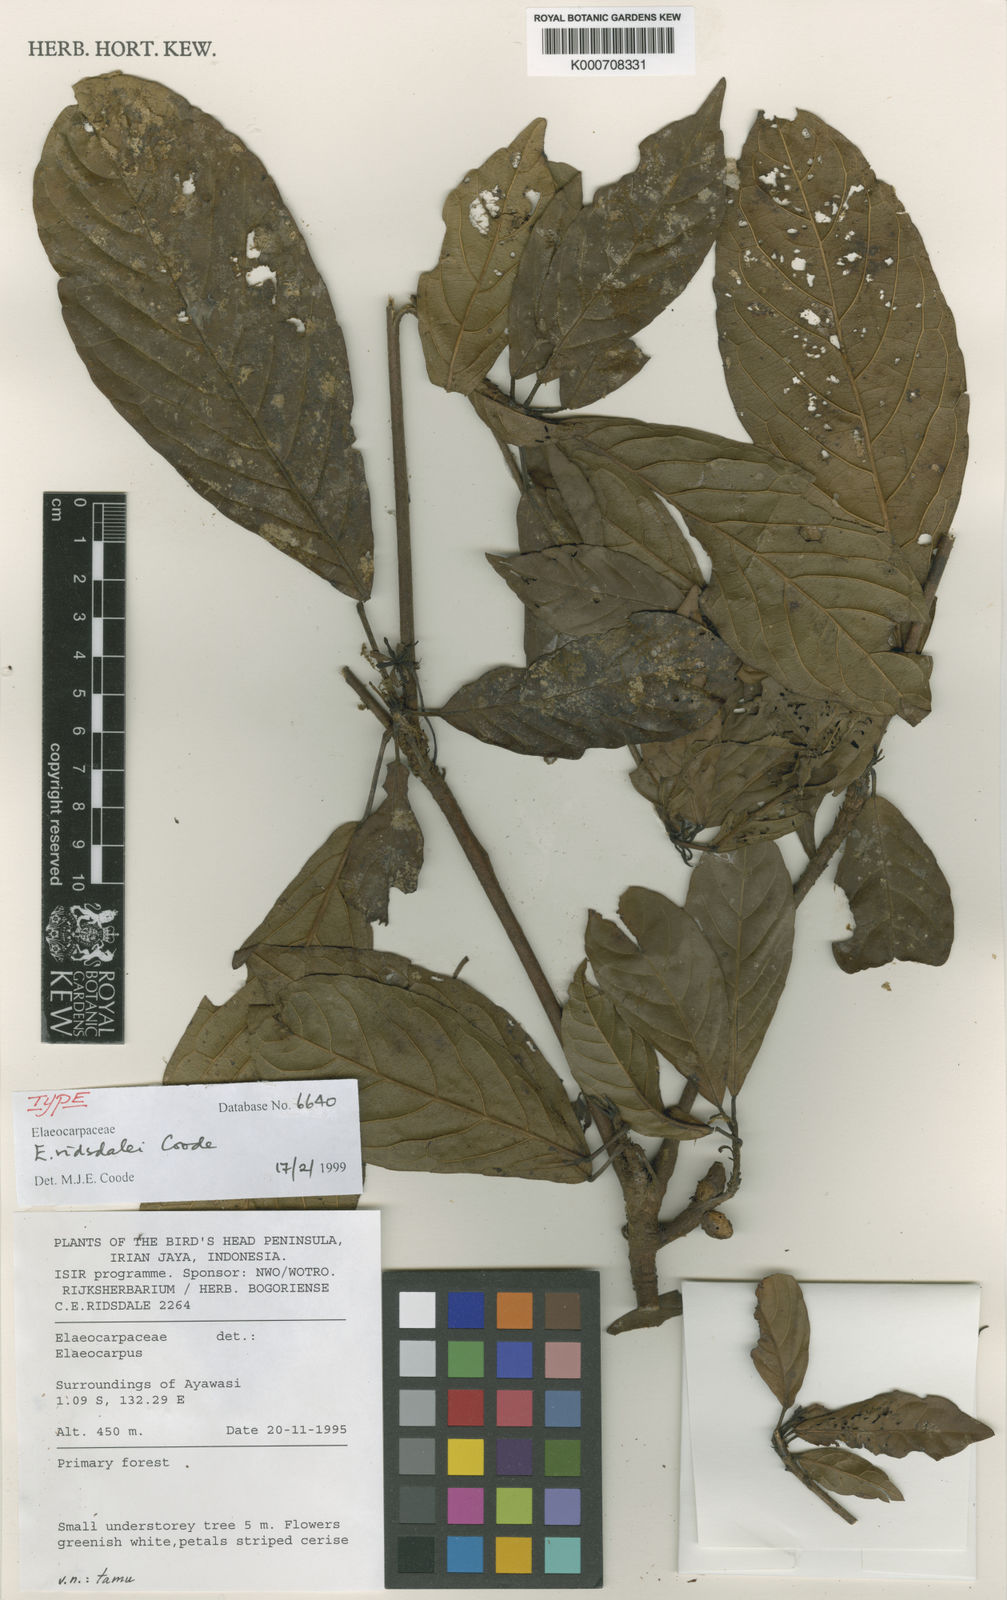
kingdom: Plantae
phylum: Tracheophyta
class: Magnoliopsida
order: Oxalidales
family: Elaeocarpaceae
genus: Elaeocarpus
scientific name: Elaeocarpus coloides
